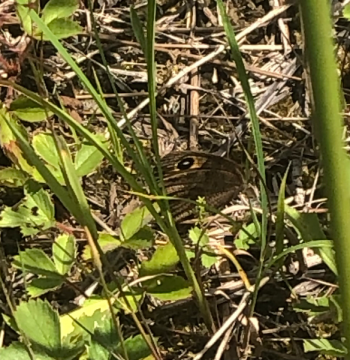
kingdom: Animalia
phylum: Arthropoda
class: Insecta
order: Lepidoptera
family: Nymphalidae
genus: Cercyonis
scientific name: Cercyonis pegala
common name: Common Wood-Nymph
